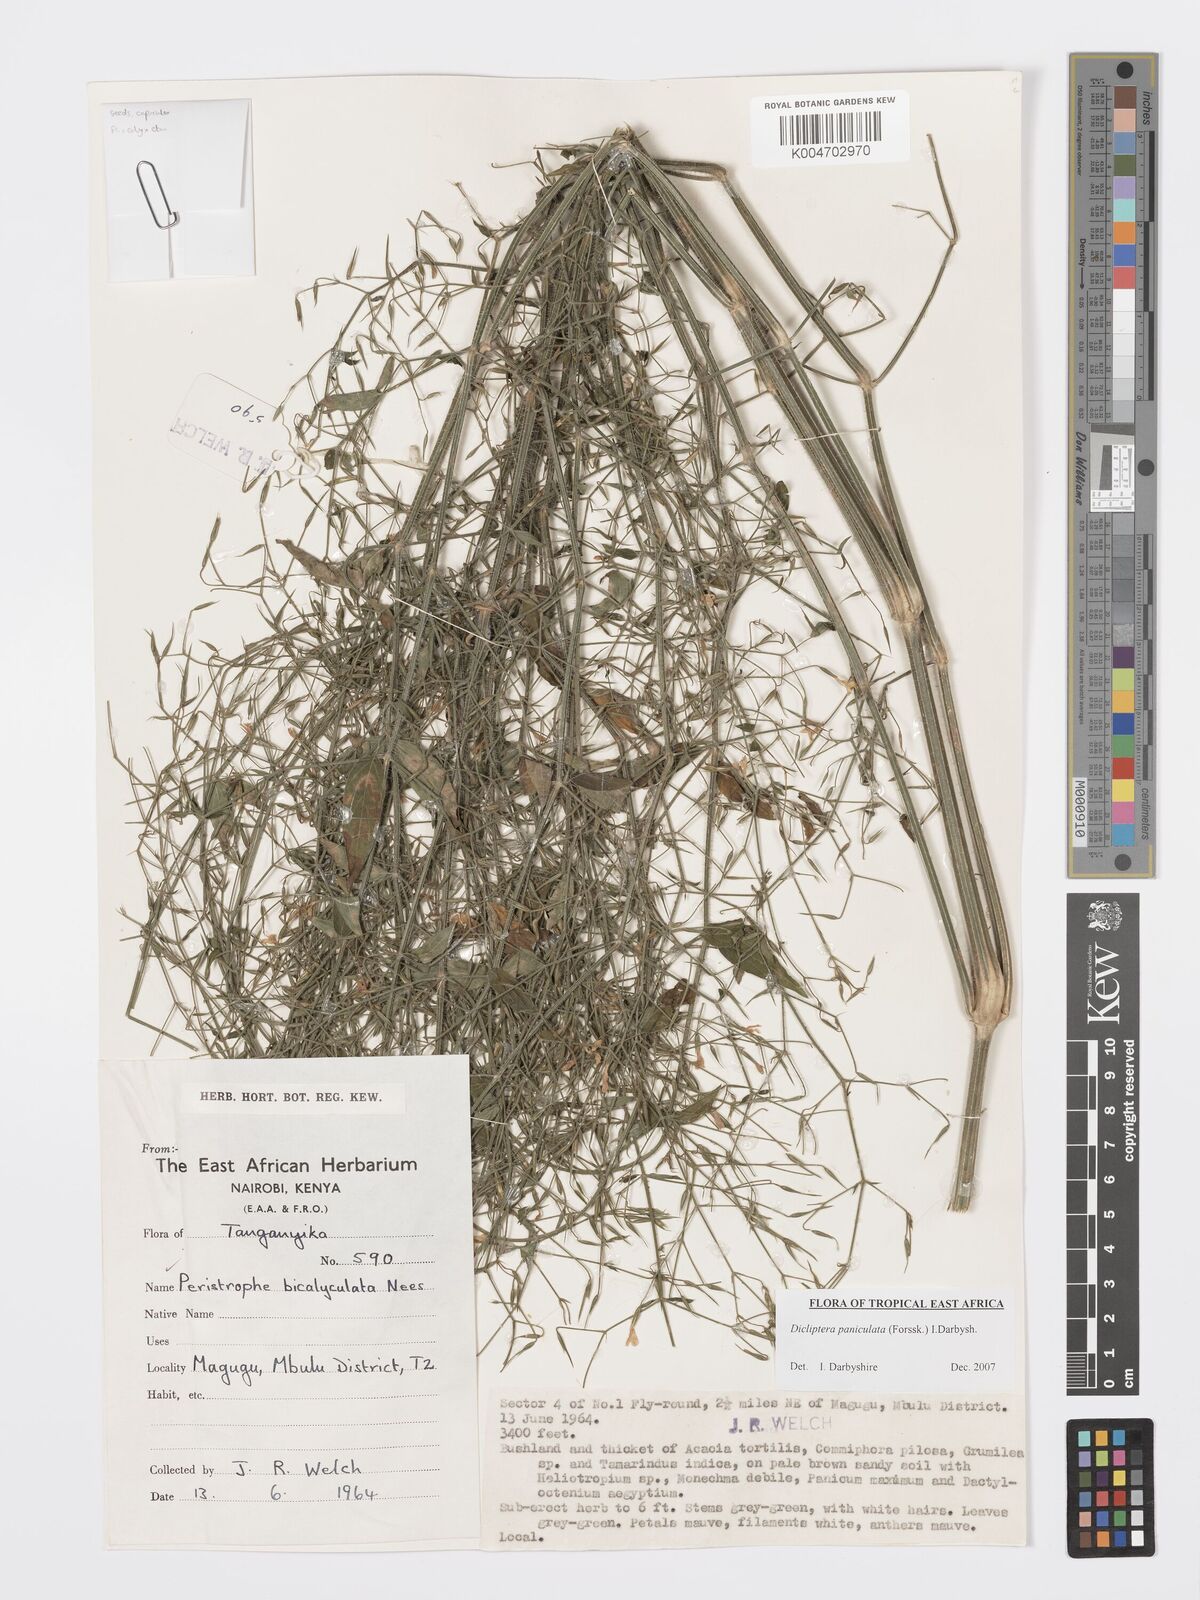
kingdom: Plantae
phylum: Tracheophyta
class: Magnoliopsida
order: Lamiales
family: Acanthaceae
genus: Dicliptera
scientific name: Dicliptera paniculata
